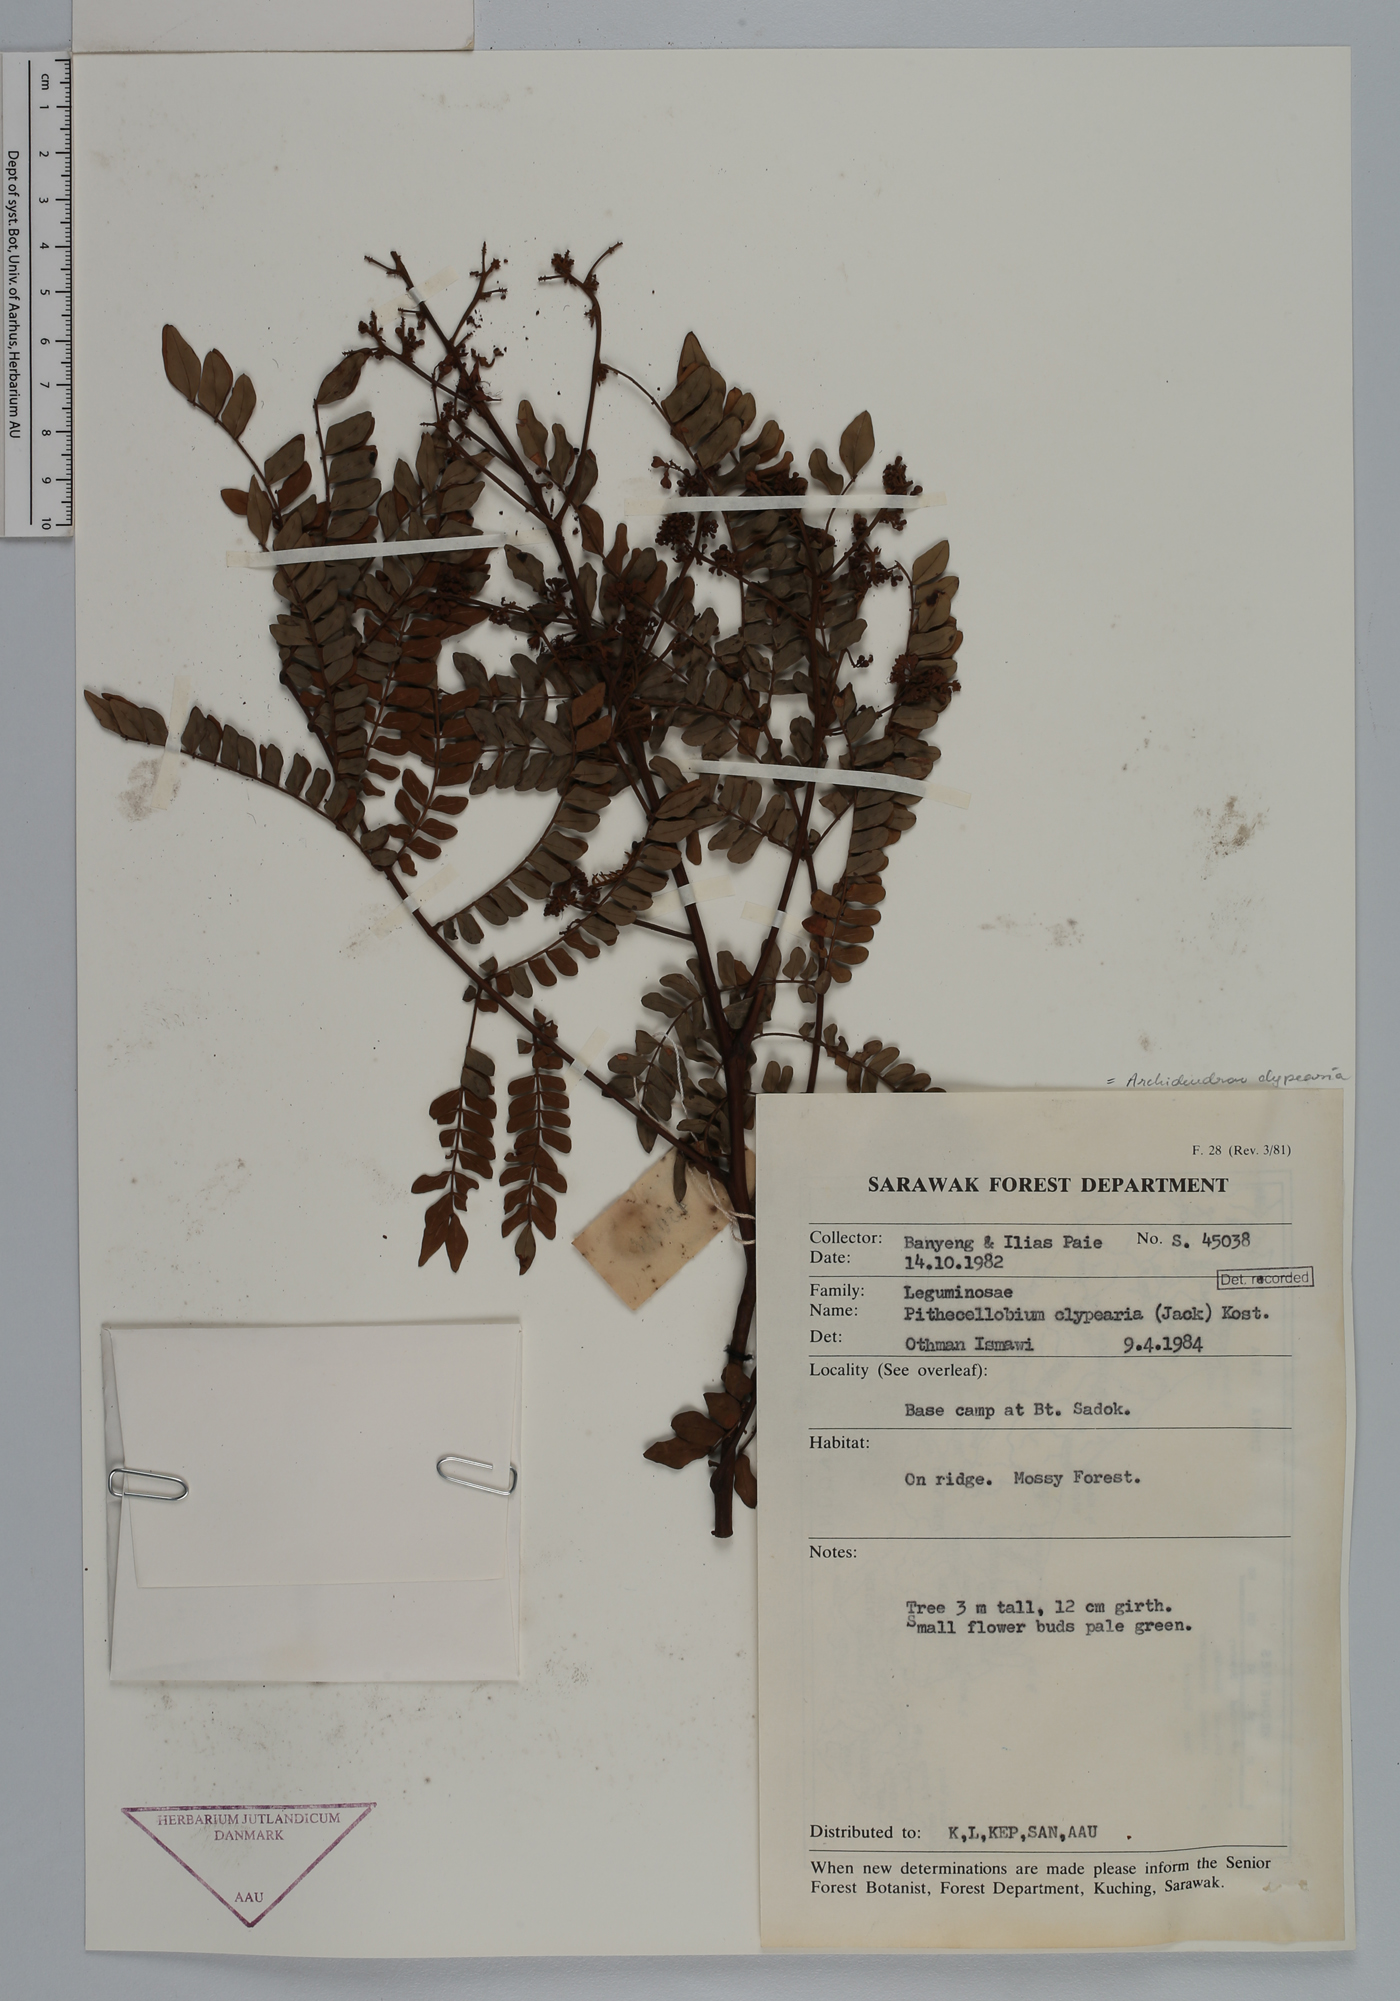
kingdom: Plantae
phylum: Tracheophyta
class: Magnoliopsida
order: Fabales
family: Fabaceae
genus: Archidendron
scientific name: Archidendron clypearia
